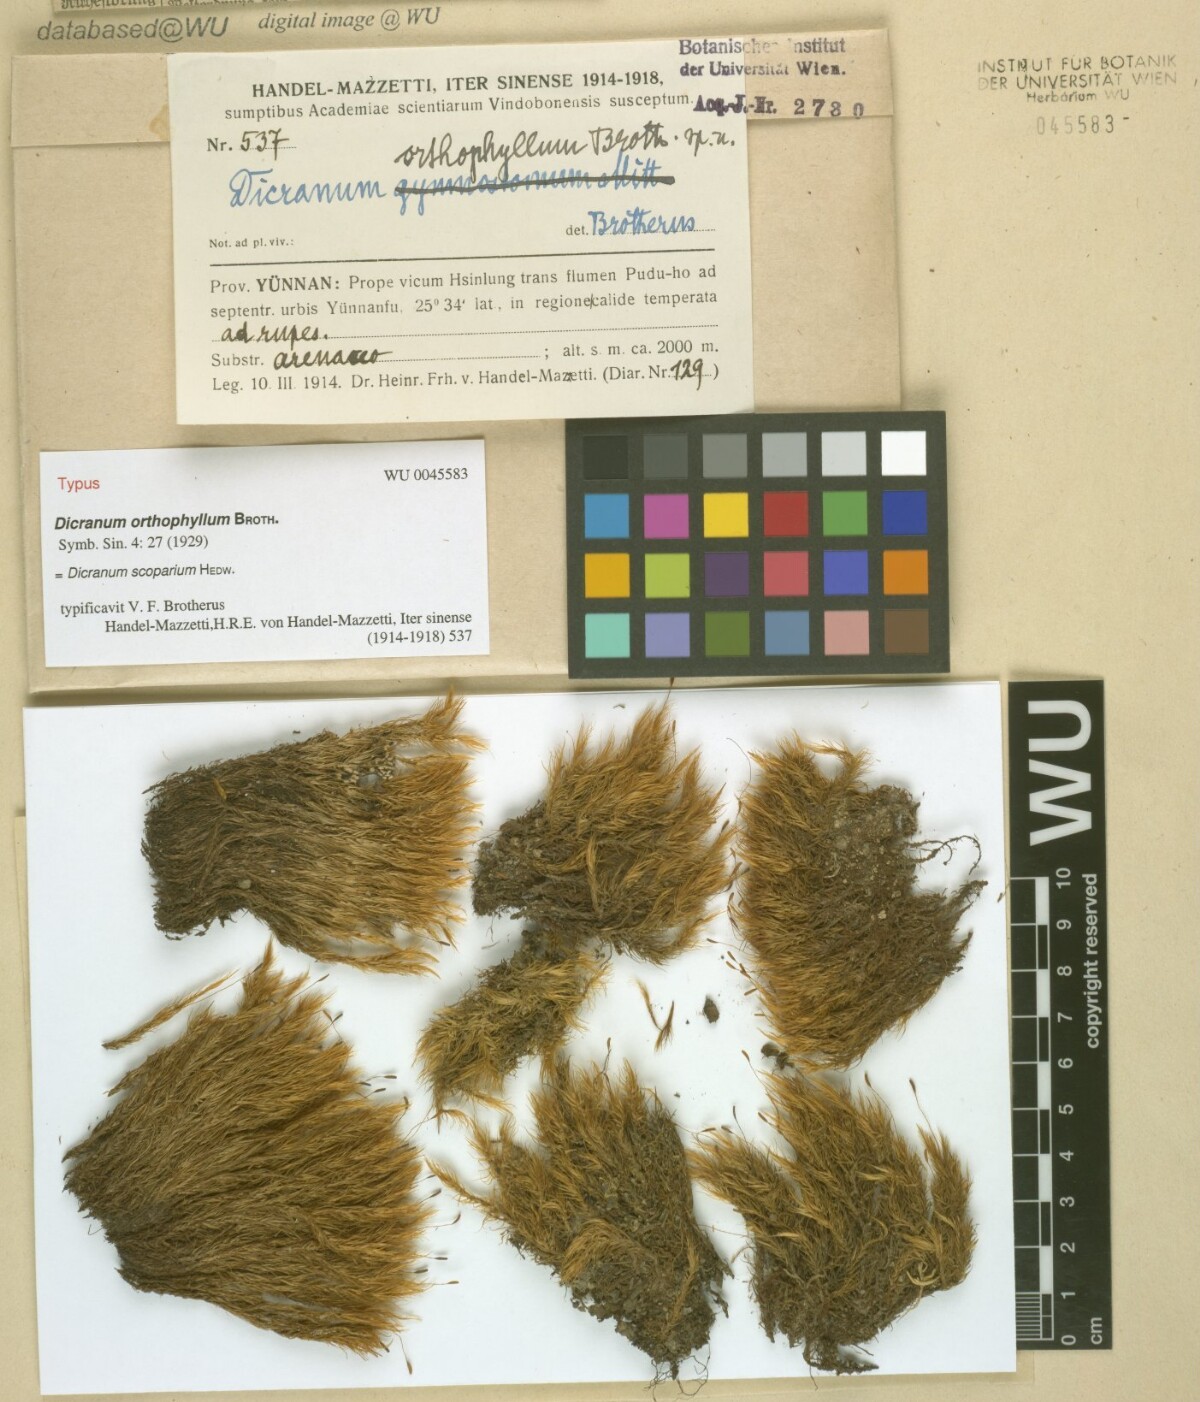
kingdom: Plantae
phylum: Bryophyta
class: Bryopsida
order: Dicranales
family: Dicranaceae
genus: Dicranum
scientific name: Dicranum scoparium
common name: Broom fork-moss
